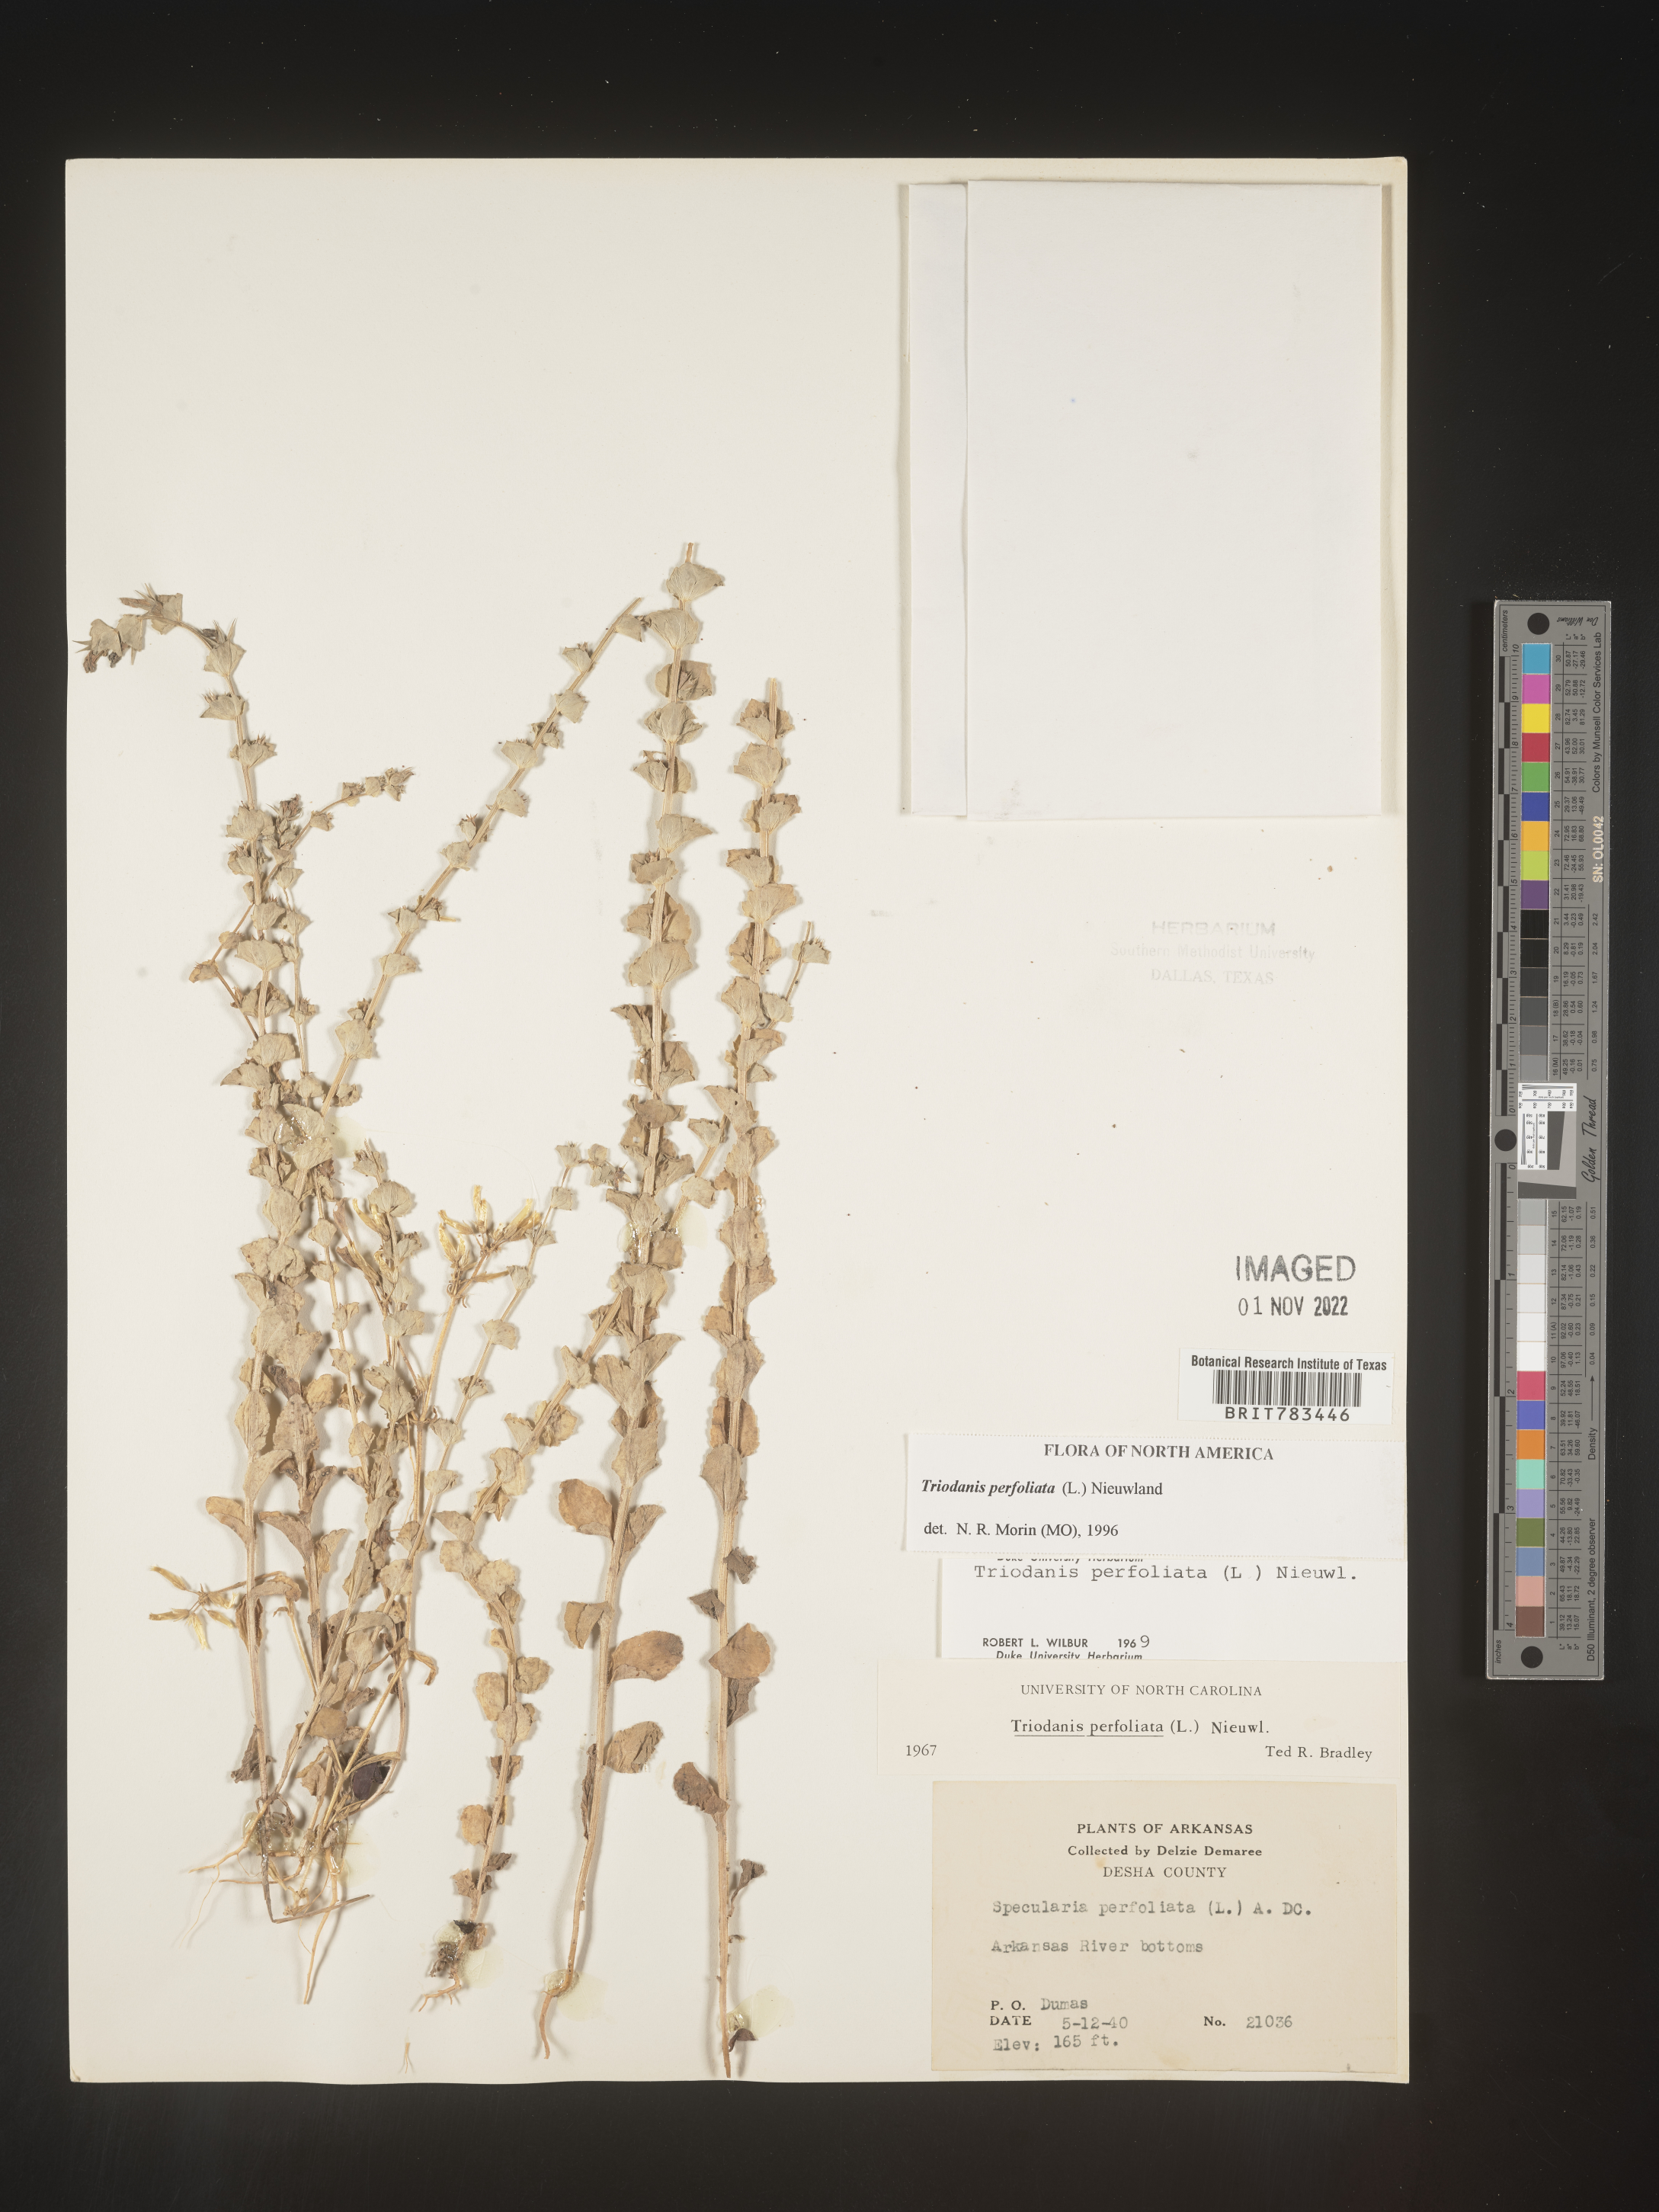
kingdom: Plantae
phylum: Tracheophyta
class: Magnoliopsida
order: Asterales
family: Campanulaceae
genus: Triodanis
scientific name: Triodanis perfoliata
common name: Clasping venus' looking-glass
